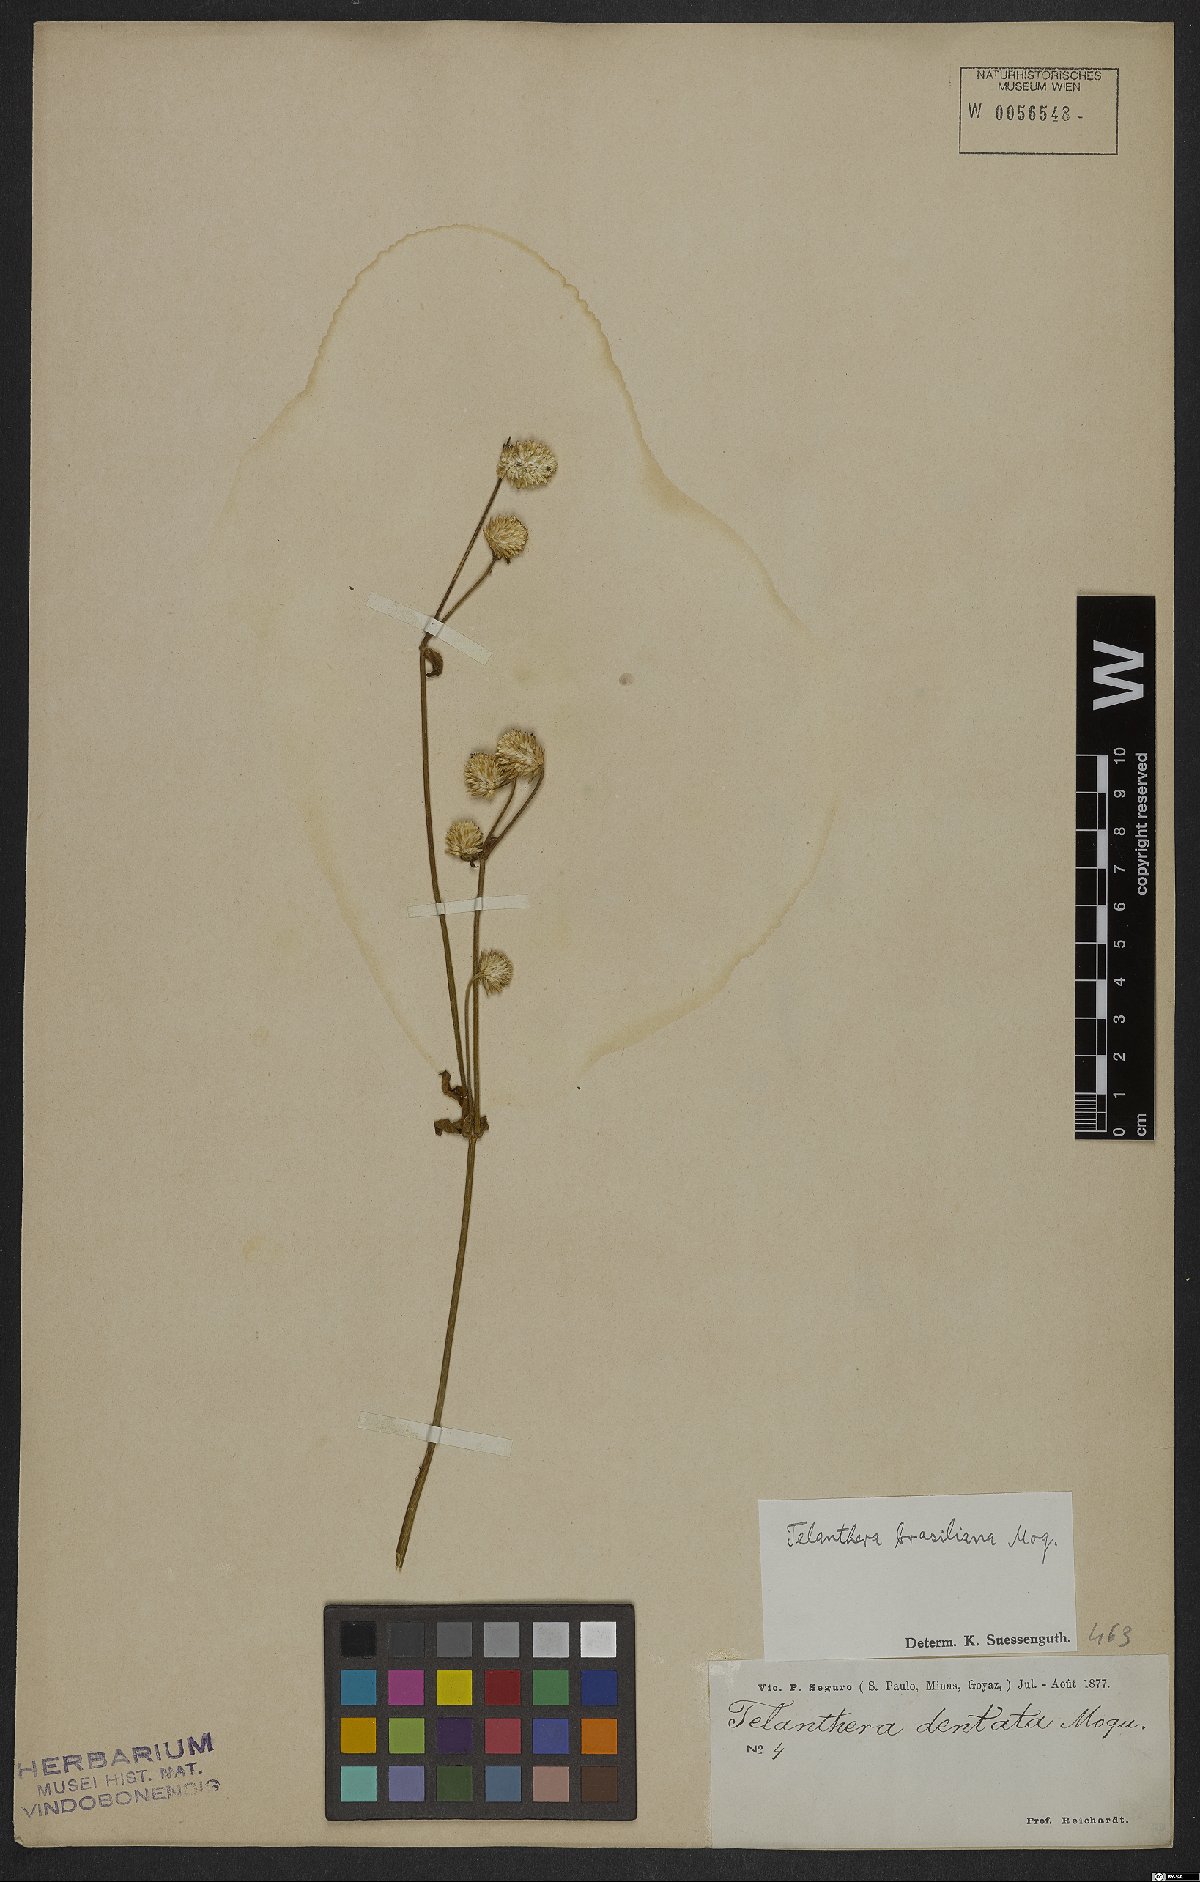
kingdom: Plantae
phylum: Tracheophyta
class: Magnoliopsida
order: Caryophyllales
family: Amaranthaceae
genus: Alternanthera
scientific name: Alternanthera brasiliana
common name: Brazilian joyweed
